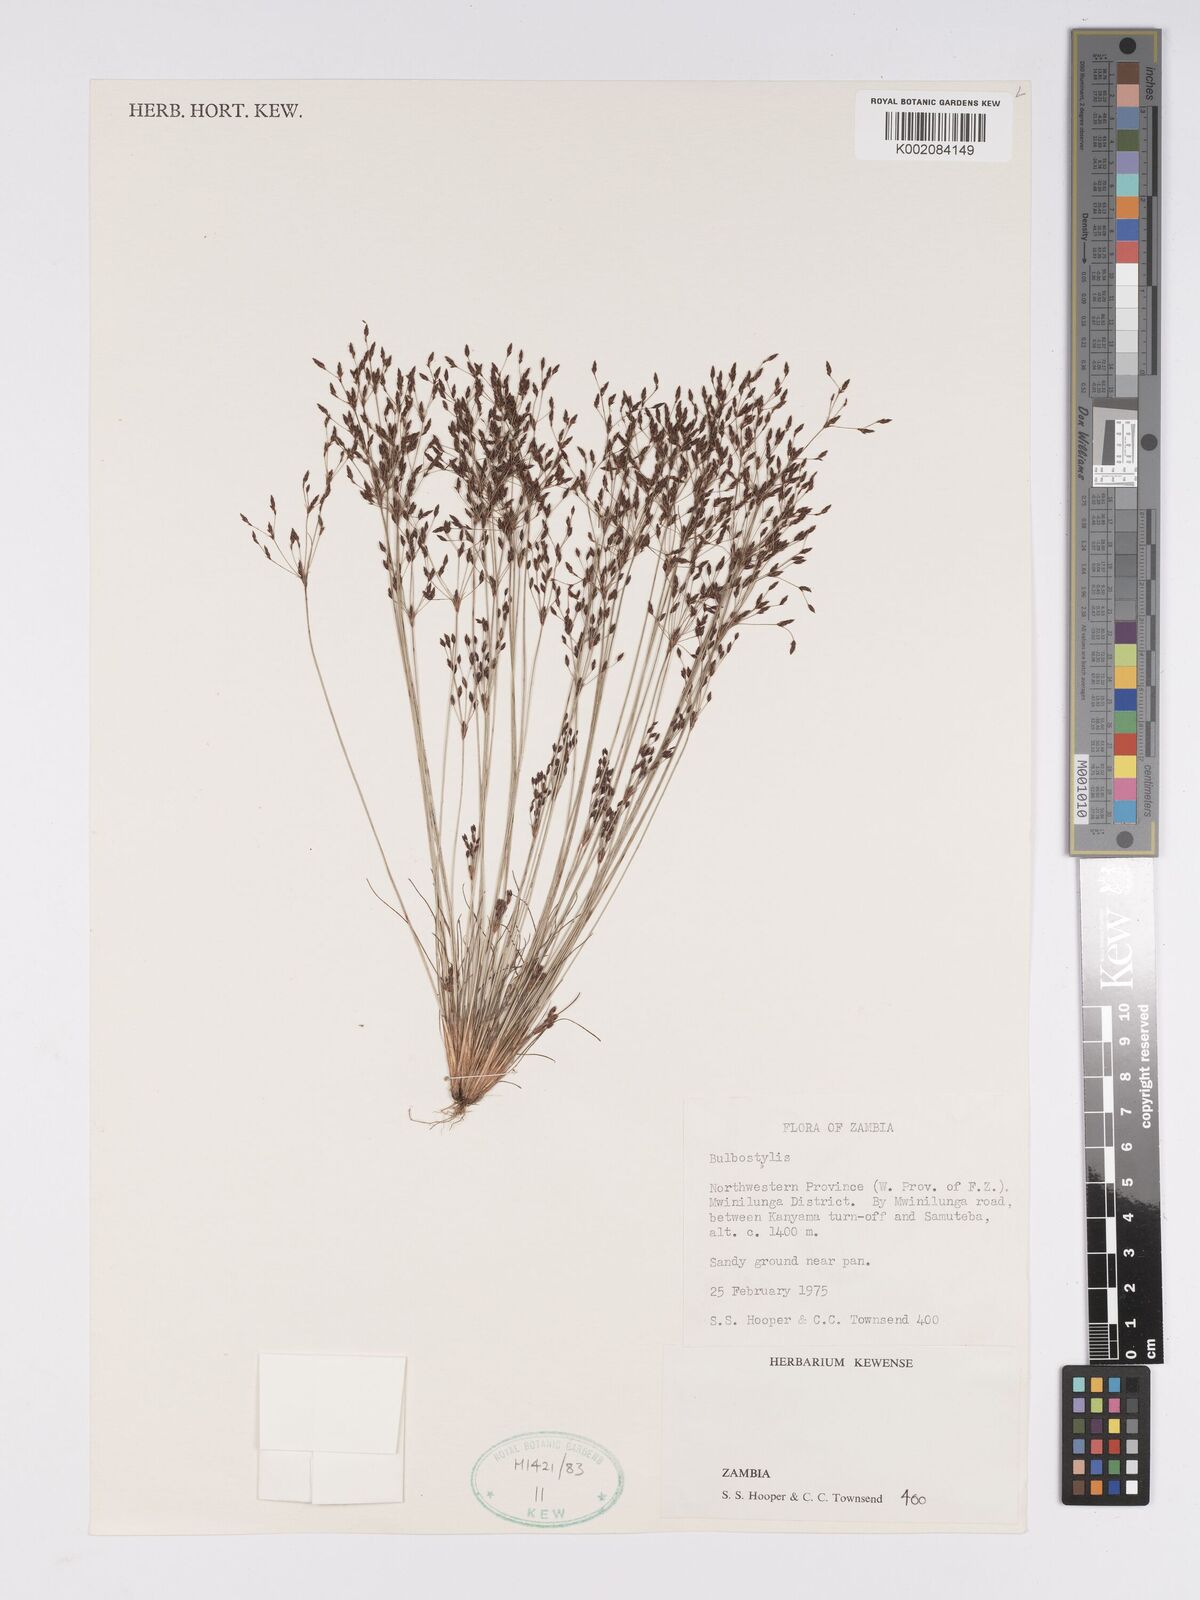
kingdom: Plantae
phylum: Tracheophyta
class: Liliopsida
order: Poales
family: Cyperaceae
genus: Bulbostylis
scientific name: Bulbostylis
